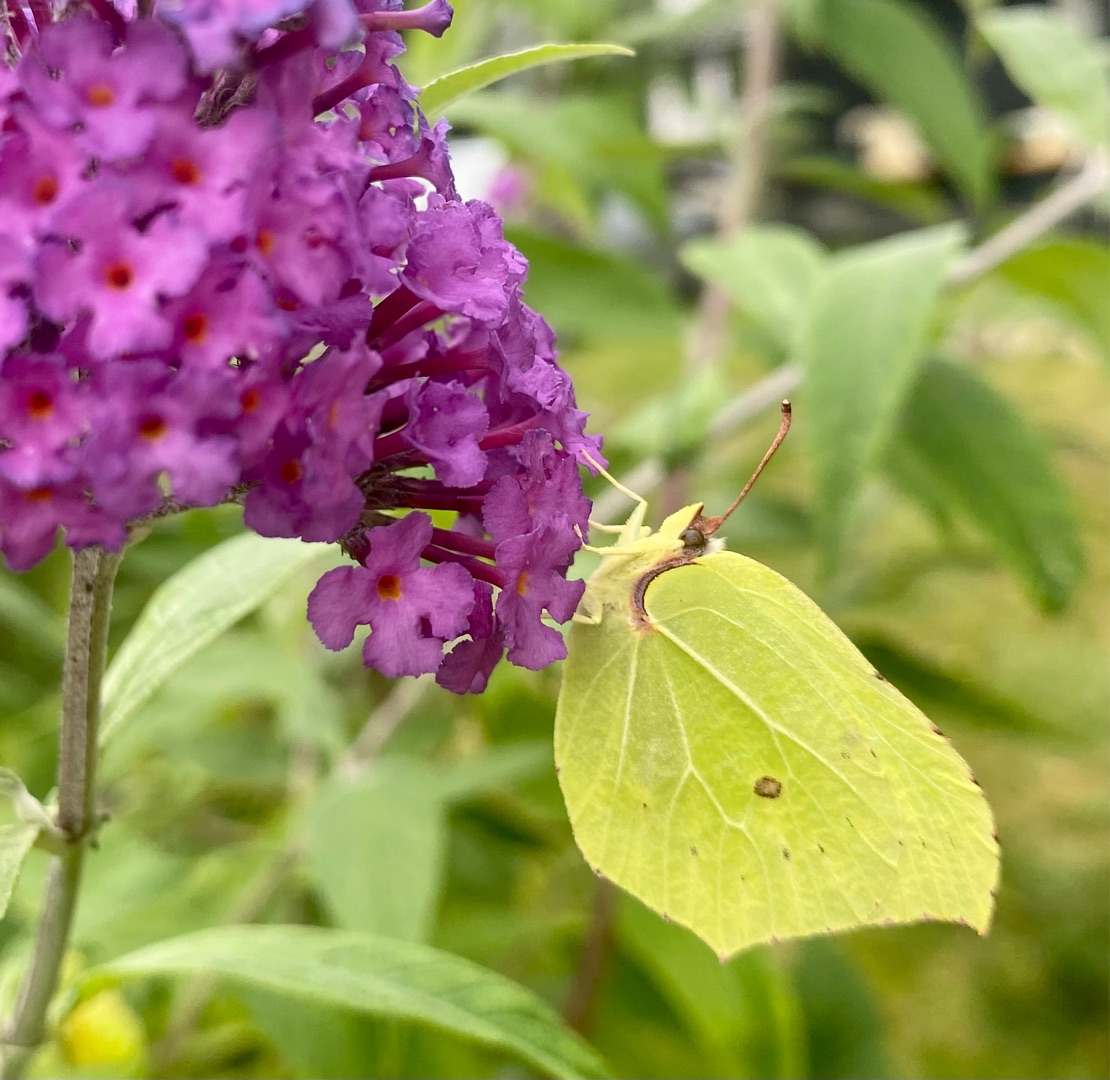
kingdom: Animalia
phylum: Arthropoda
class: Insecta
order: Lepidoptera
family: Pieridae
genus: Gonepteryx
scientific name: Gonepteryx rhamni
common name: Citronsommerfugl
